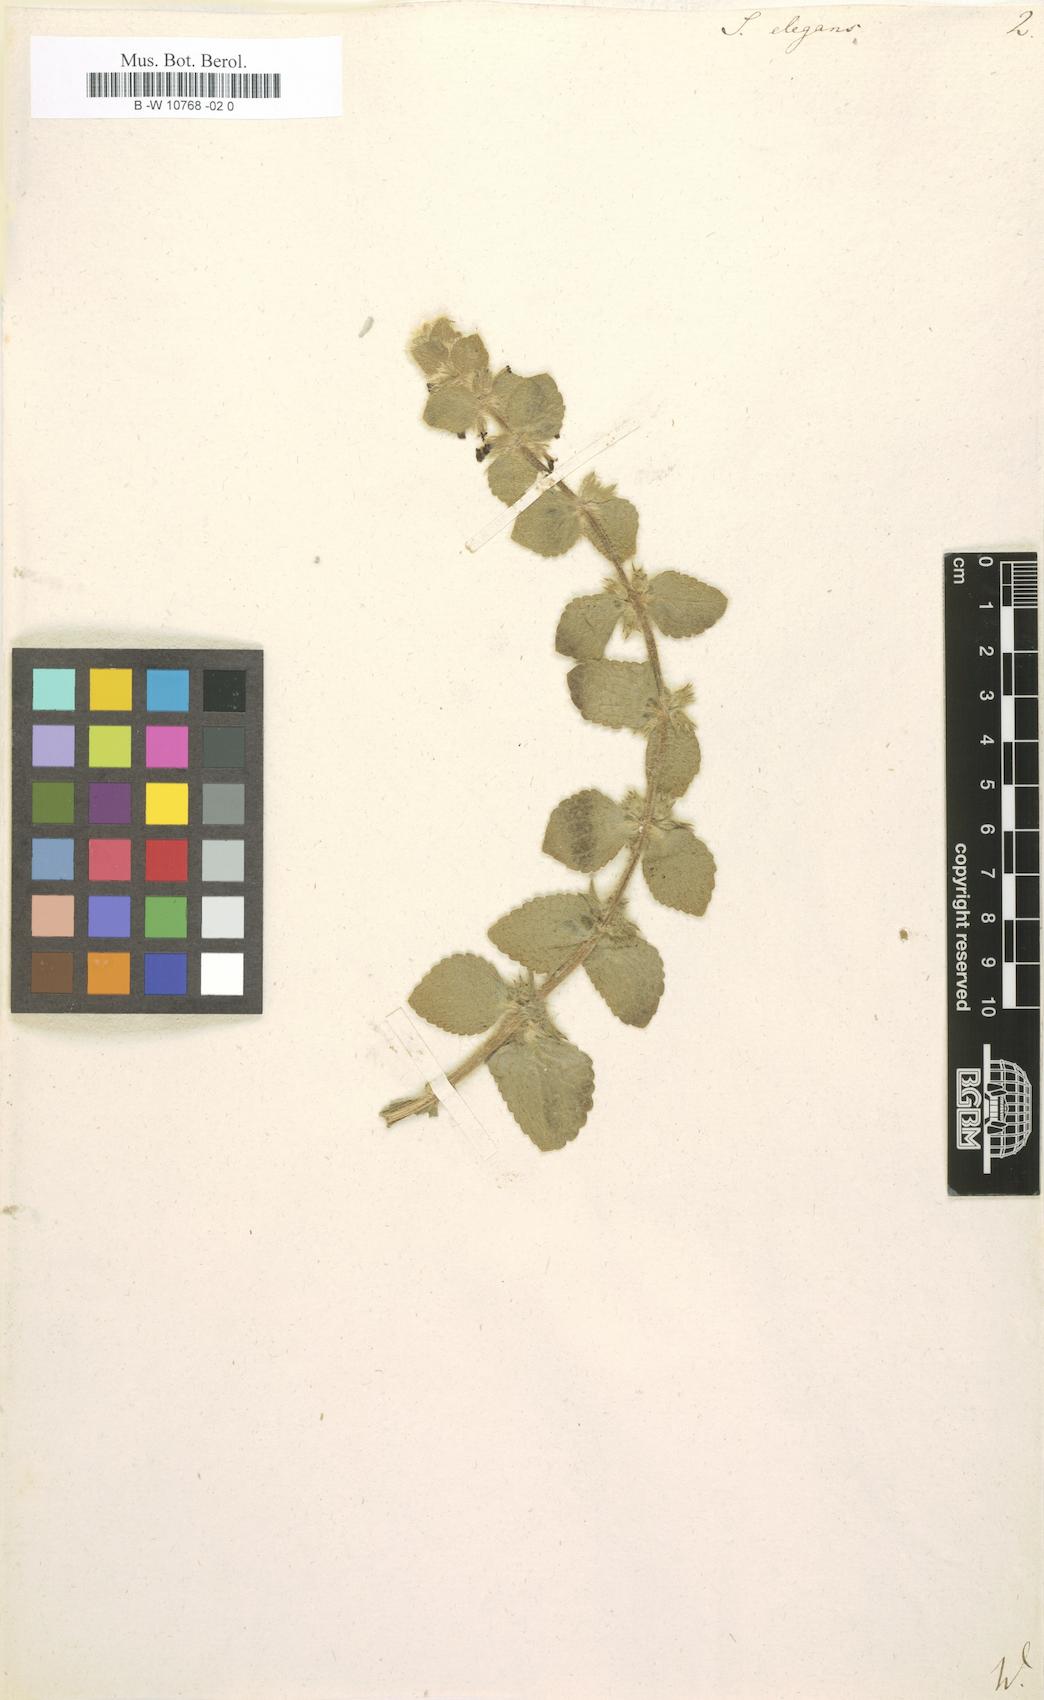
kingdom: Plantae
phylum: Tracheophyta
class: Magnoliopsida
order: Lamiales
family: Lamiaceae
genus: Sideritis
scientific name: Sideritis lanata
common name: Hairy ironwort
